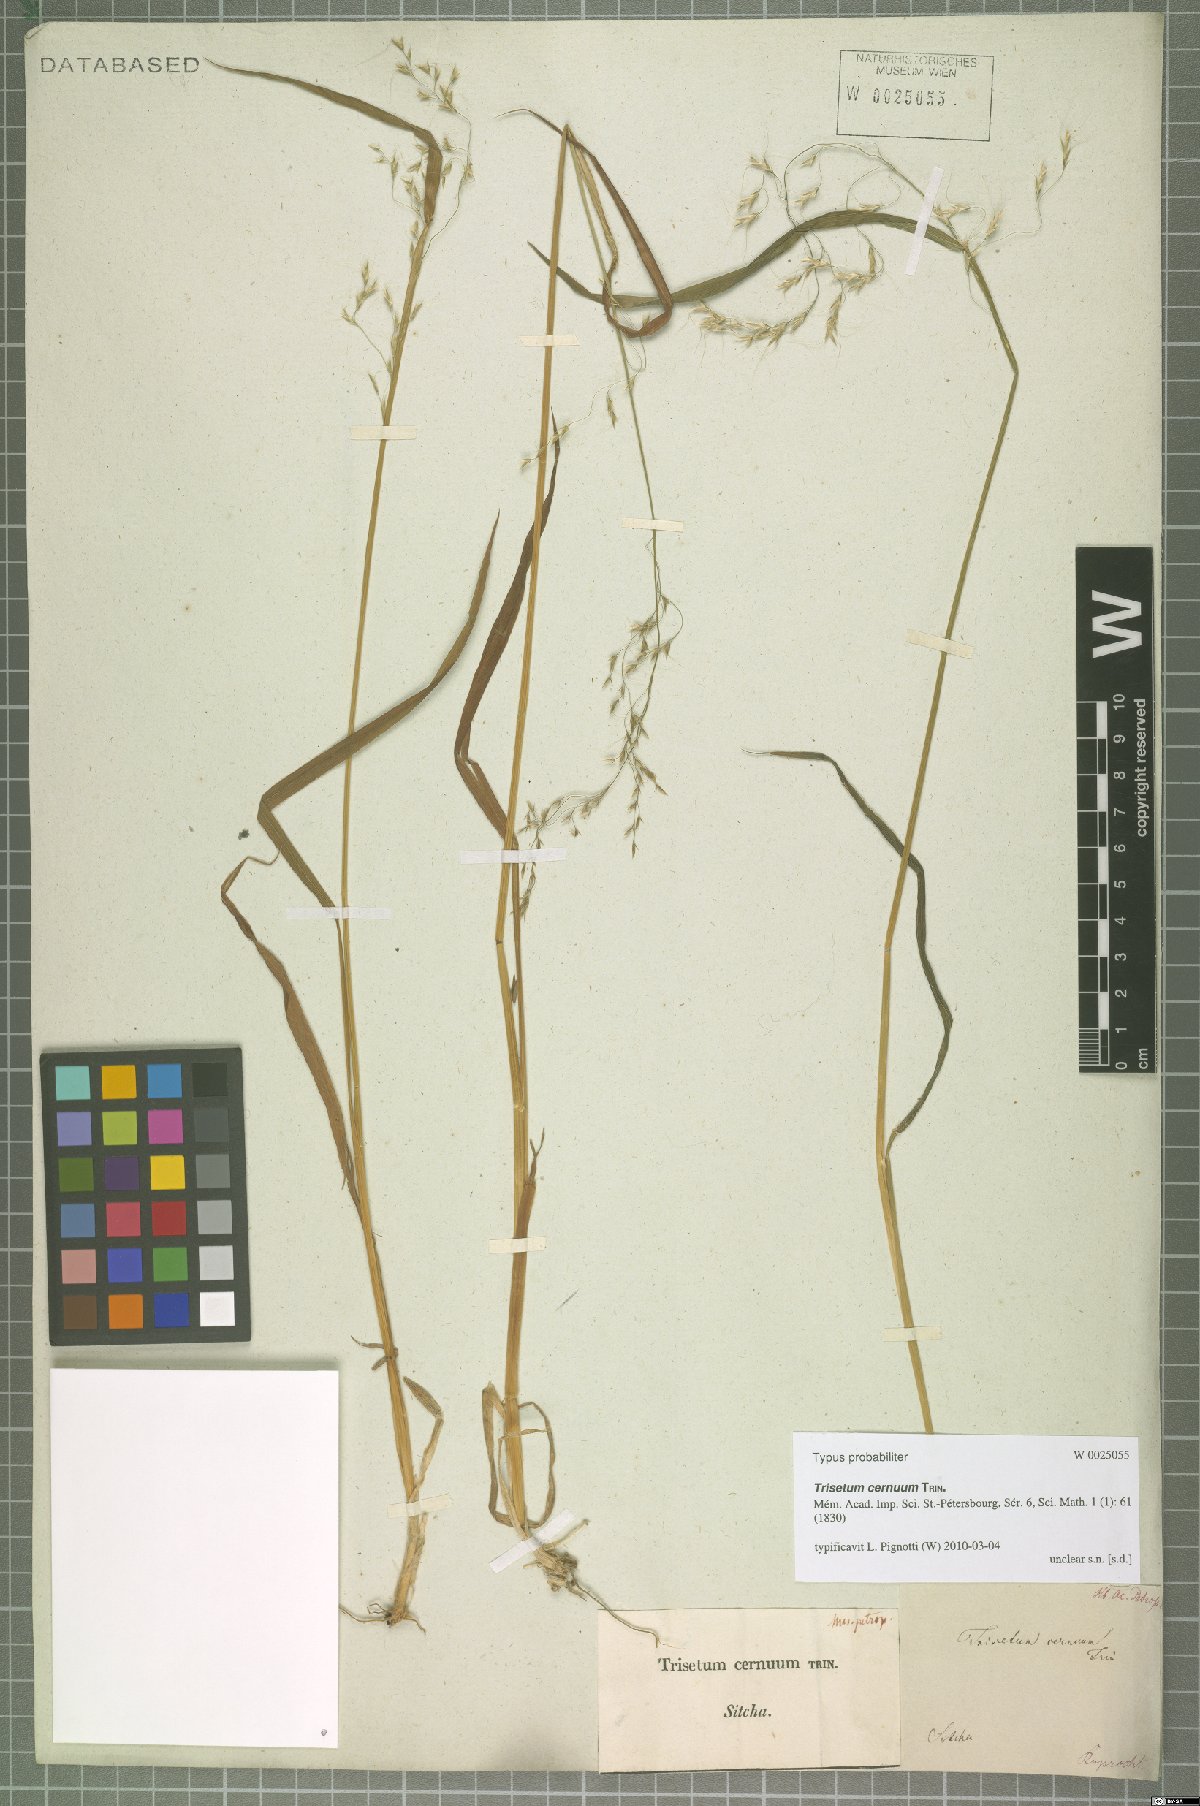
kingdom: Plantae
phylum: Tracheophyta
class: Liliopsida
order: Poales
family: Poaceae
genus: Graphephorum
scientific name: Graphephorum cernuum
